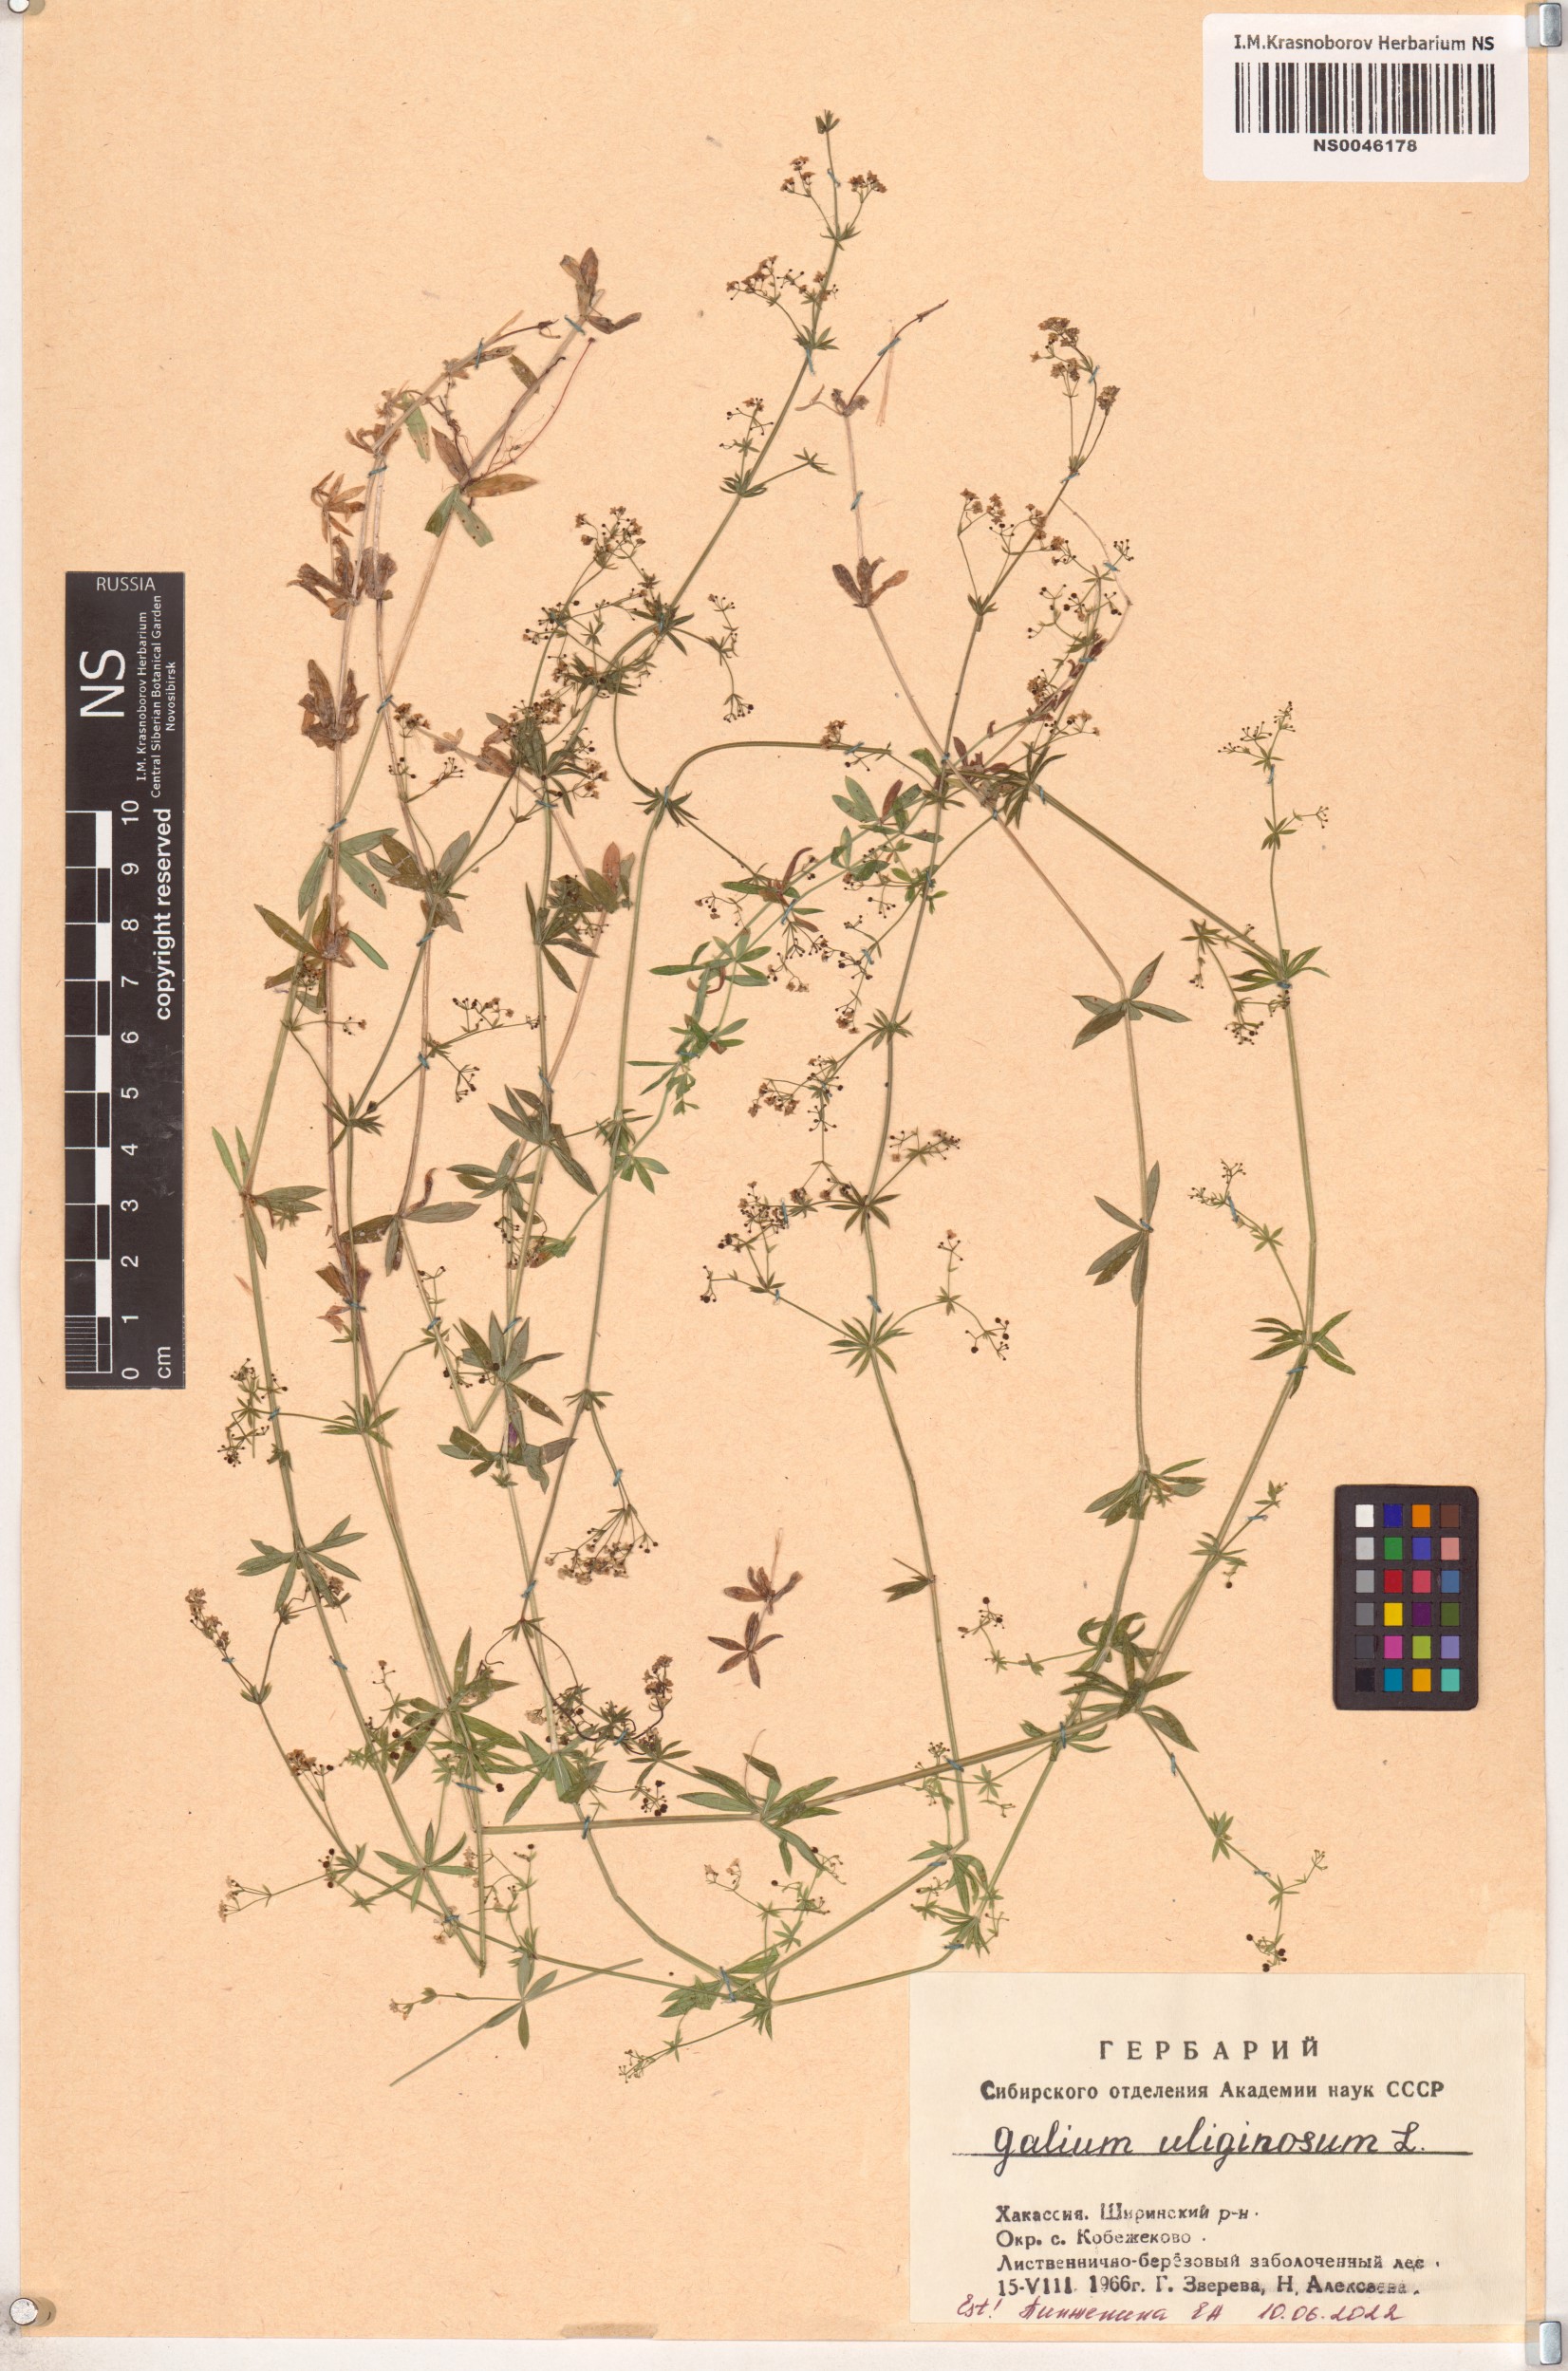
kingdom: Plantae
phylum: Tracheophyta
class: Magnoliopsida
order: Gentianales
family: Rubiaceae
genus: Galium
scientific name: Galium uliginosum
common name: Fen bedstraw
